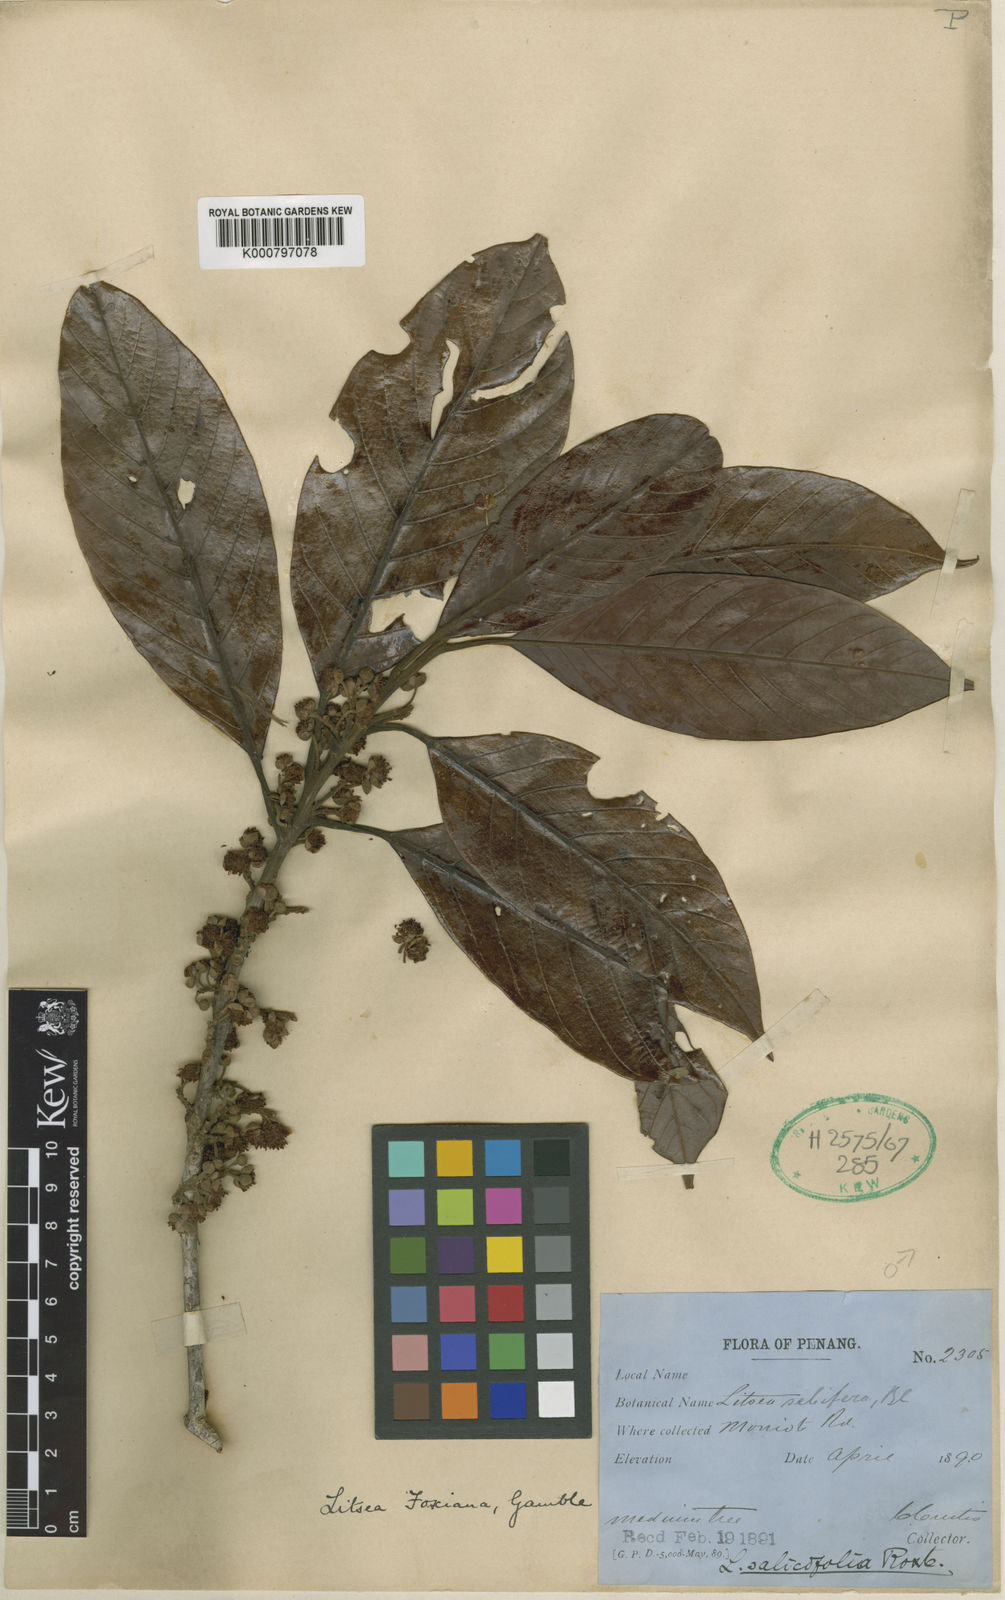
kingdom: Plantae
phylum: Tracheophyta
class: Magnoliopsida
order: Laurales
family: Lauraceae
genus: Litsea
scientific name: Litsea maingayi
